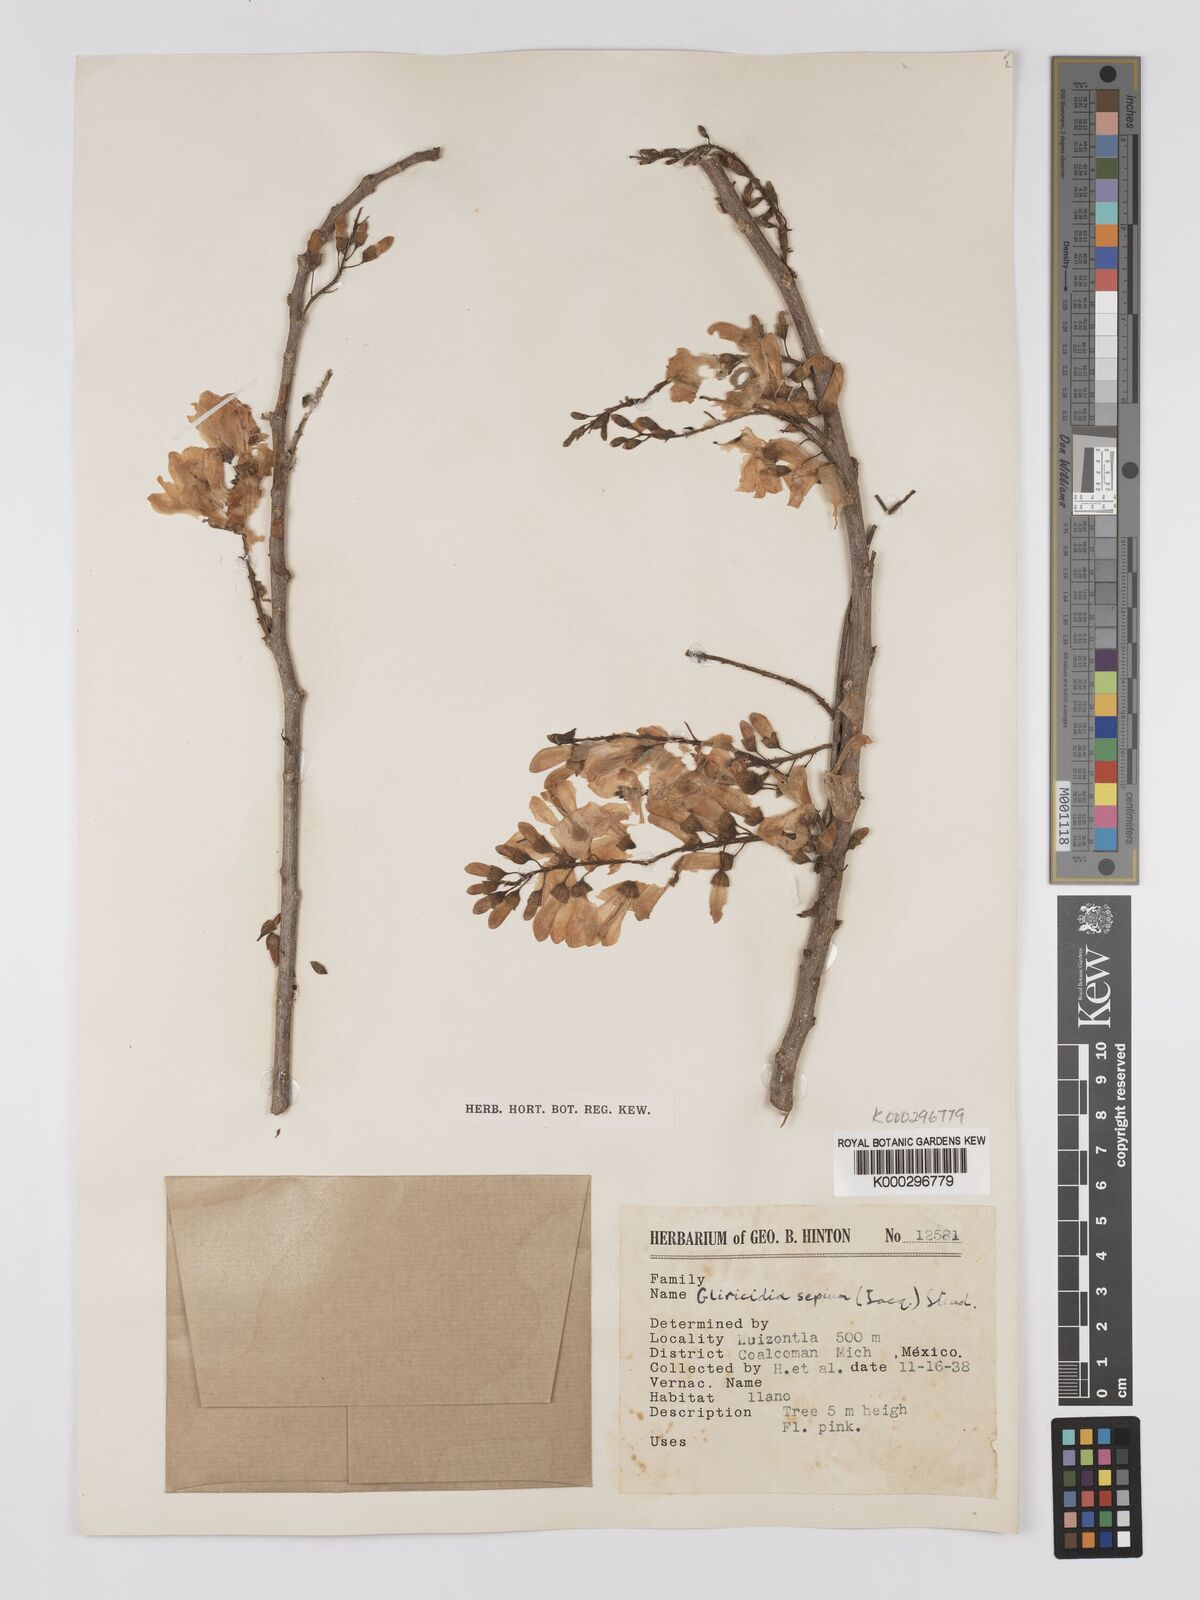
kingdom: Plantae
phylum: Tracheophyta
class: Magnoliopsida
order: Fabales
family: Fabaceae
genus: Gliricidia
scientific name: Gliricidia sepium
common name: Quickstick
